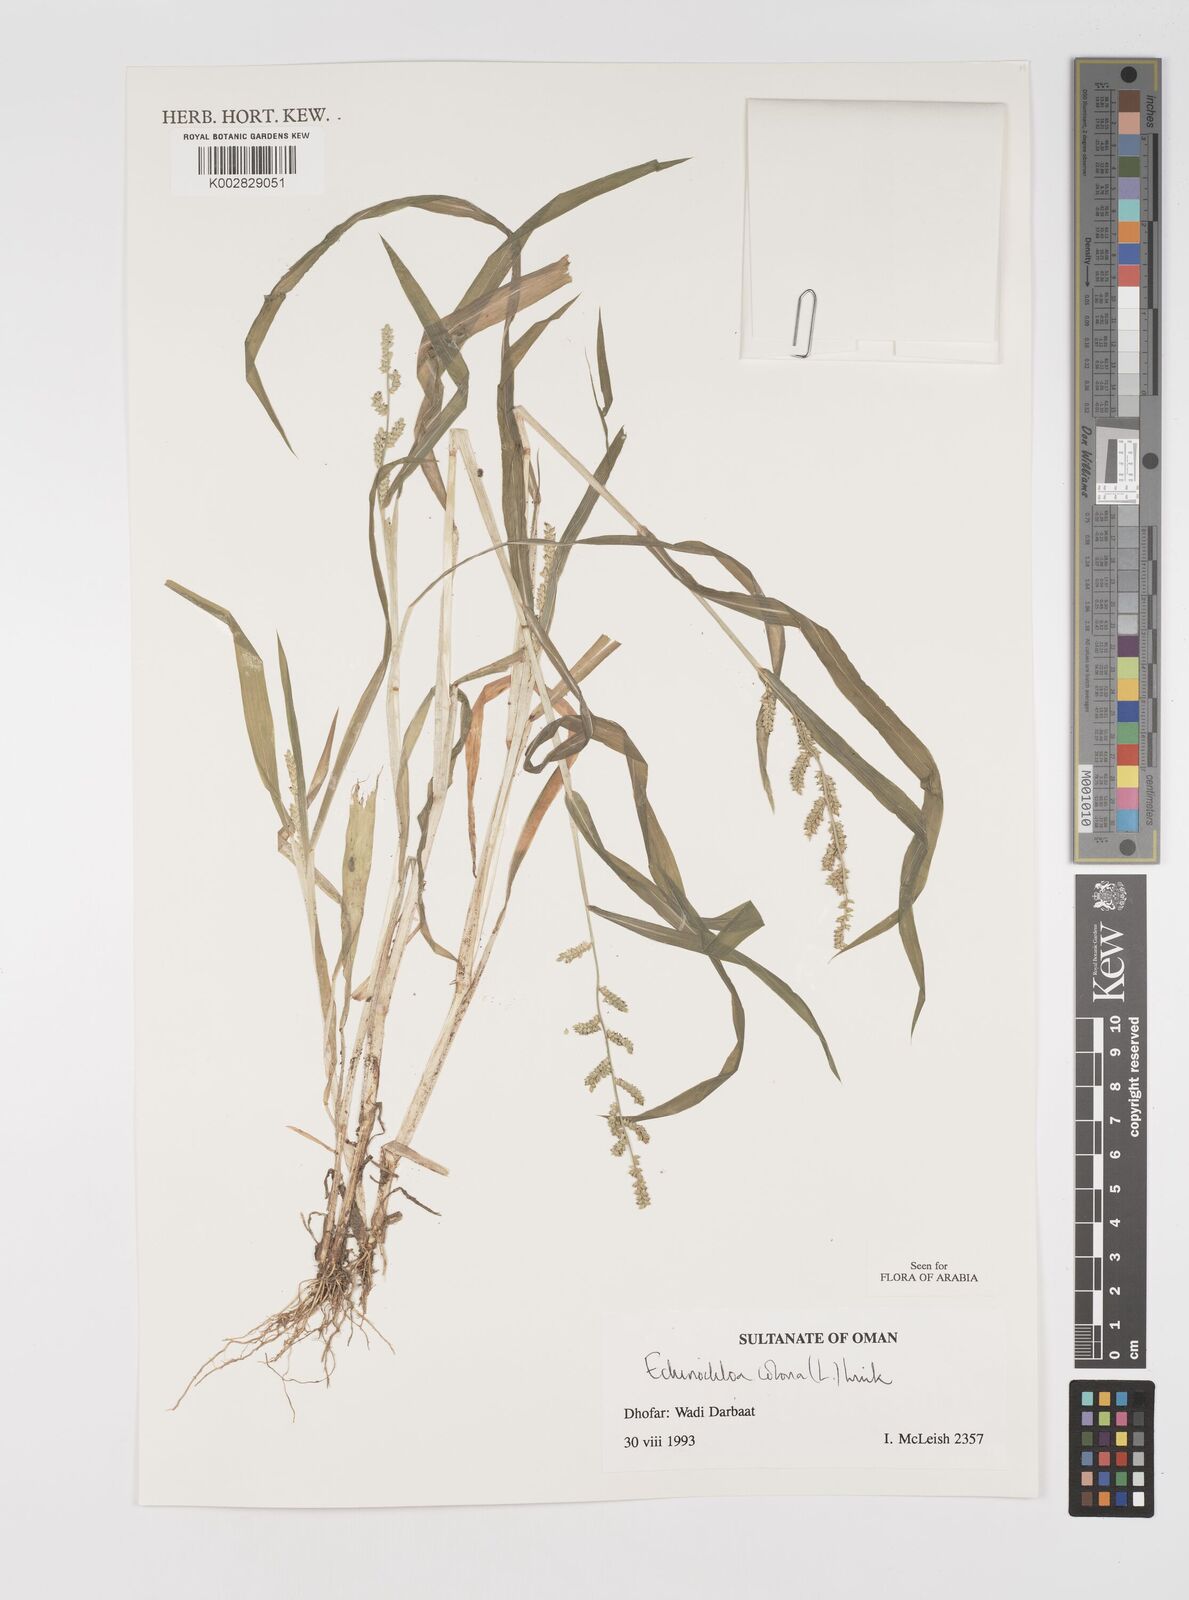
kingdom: Plantae
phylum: Tracheophyta
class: Liliopsida
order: Poales
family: Poaceae
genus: Echinochloa
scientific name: Echinochloa colonum
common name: Jungle rice
